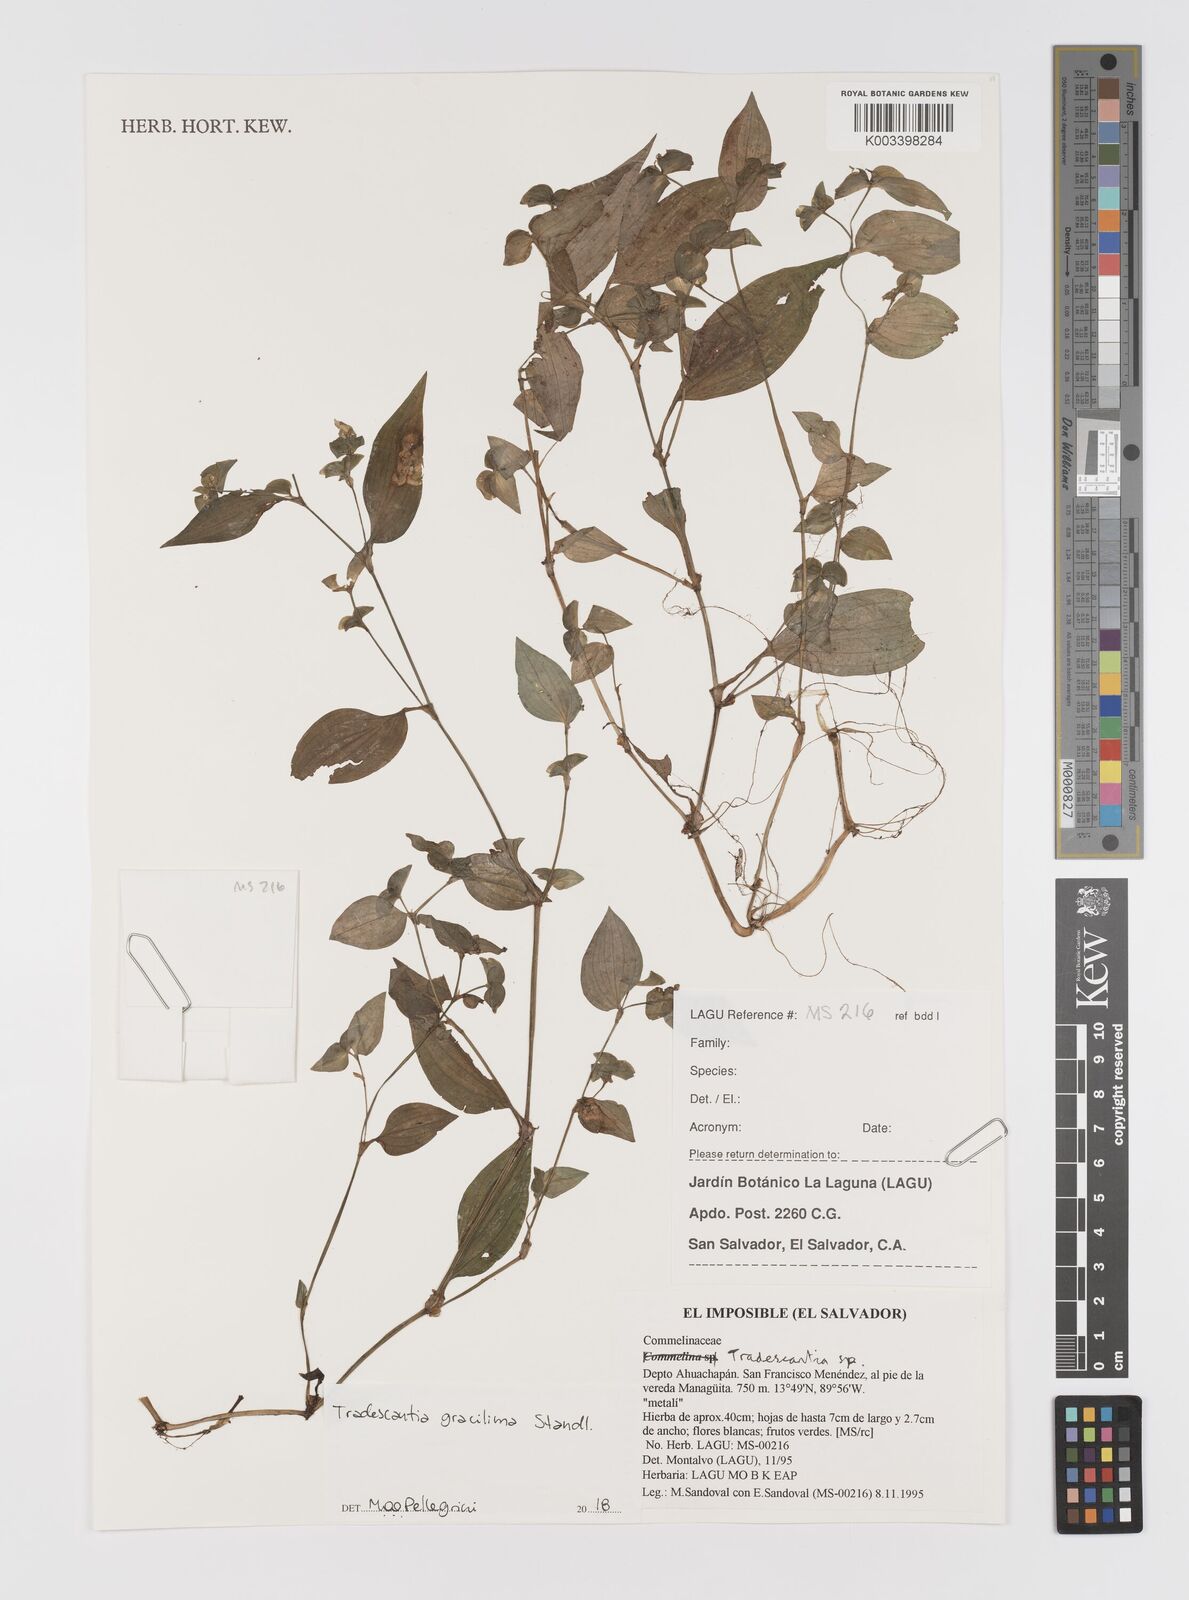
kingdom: Plantae
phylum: Tracheophyta
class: Liliopsida
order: Commelinales
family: Commelinaceae
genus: Tradescantia
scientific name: Tradescantia gracillima
